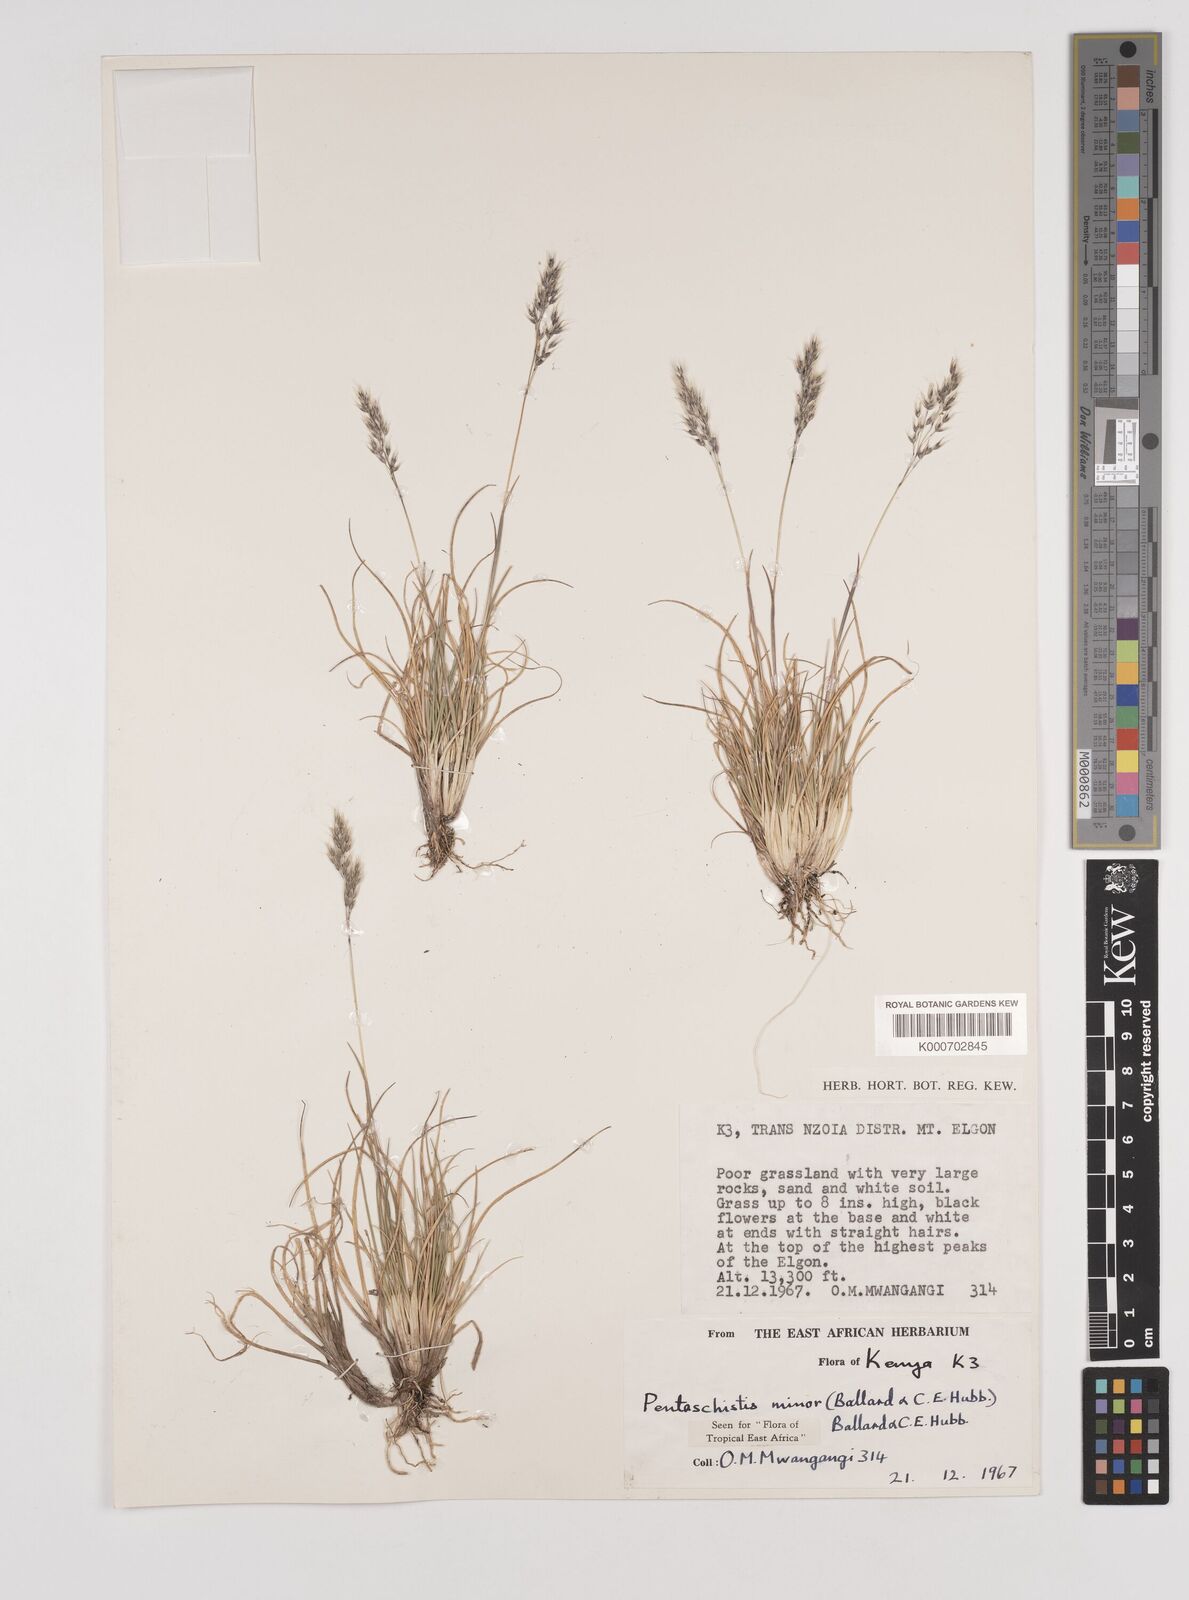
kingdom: Plantae
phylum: Tracheophyta
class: Liliopsida
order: Poales
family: Poaceae
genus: Pentameris
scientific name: Pentameris minor
